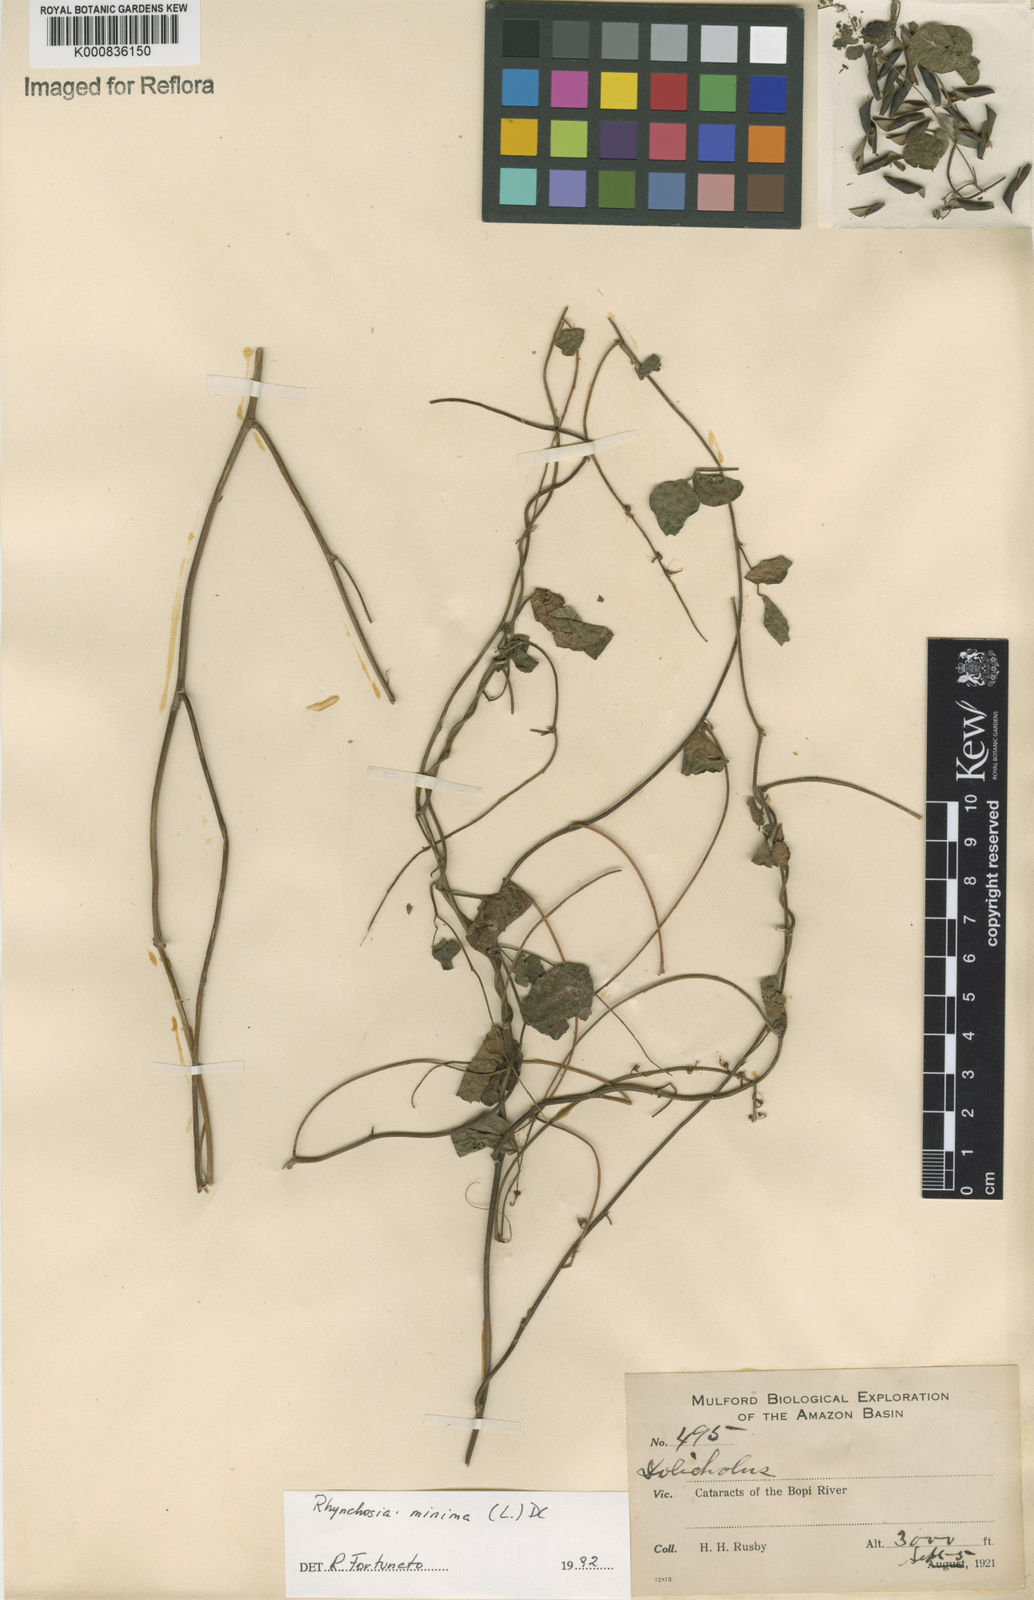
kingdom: Plantae
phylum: Tracheophyta
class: Magnoliopsida
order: Fabales
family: Fabaceae
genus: Rhynchosia
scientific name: Rhynchosia minima
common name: Least snoutbean
